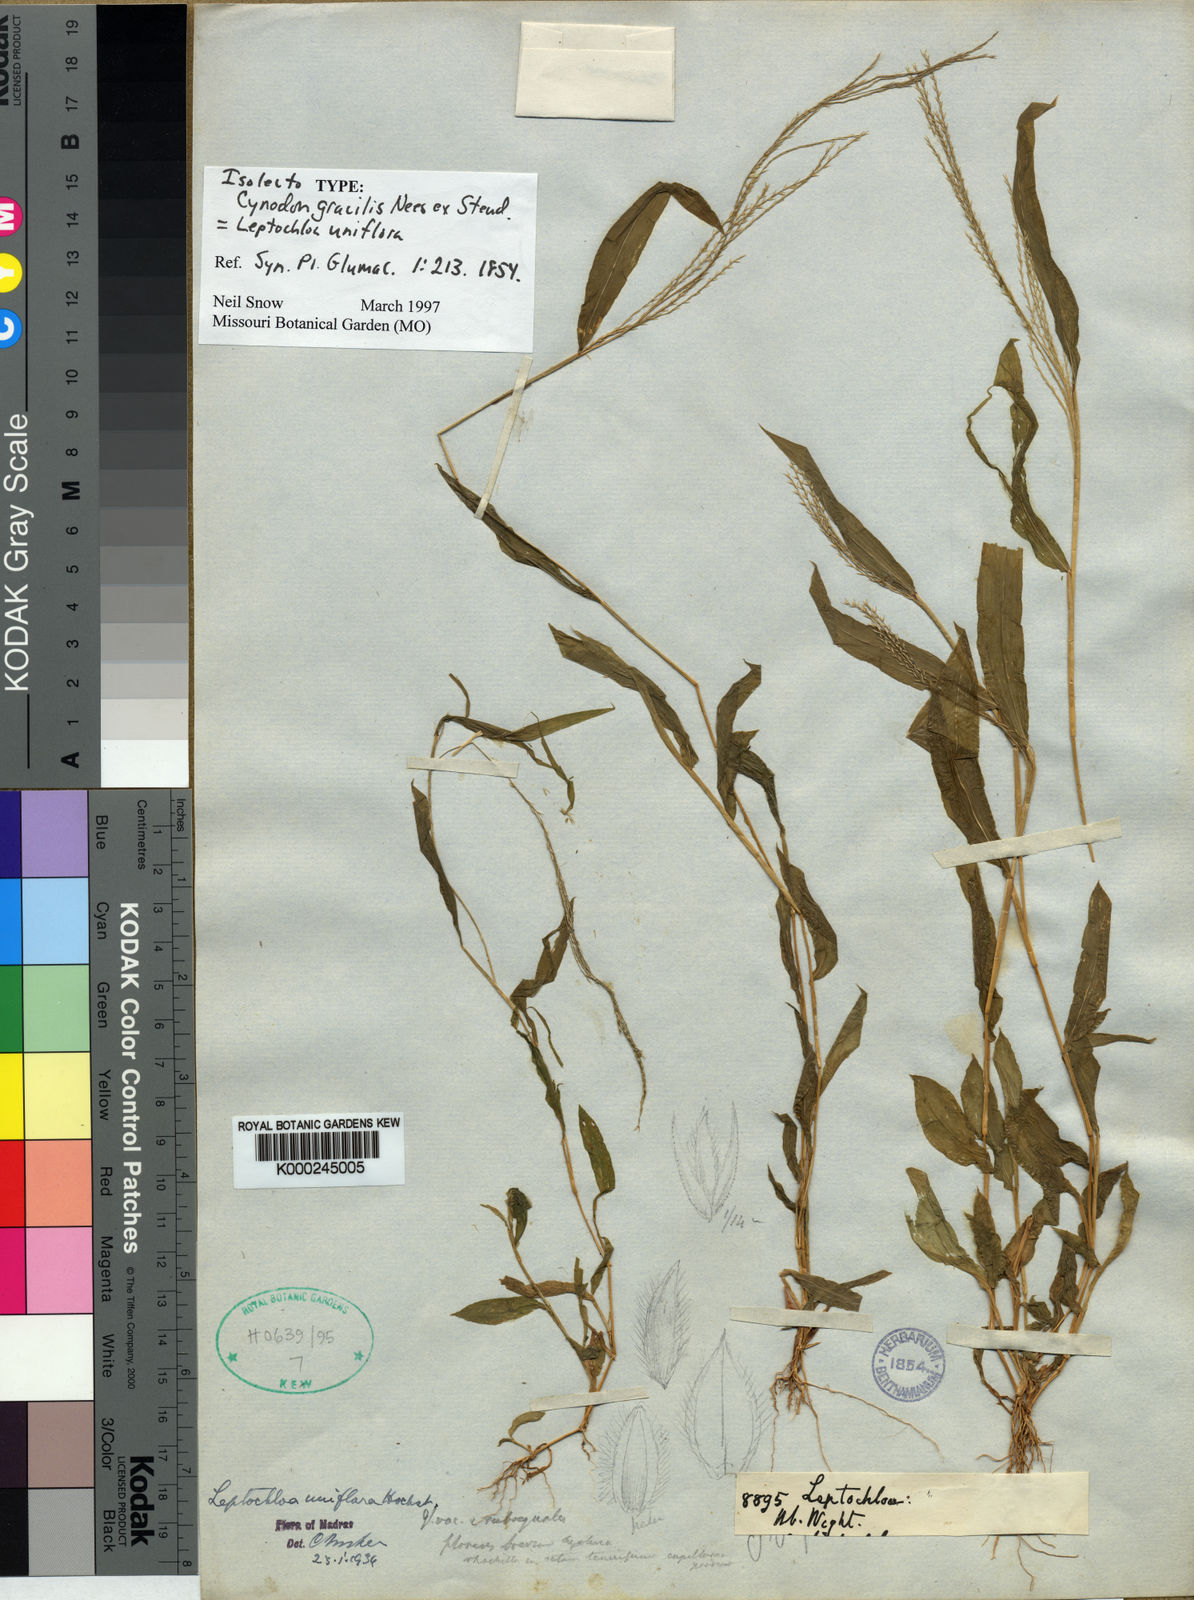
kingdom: Plantae
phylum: Tracheophyta
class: Liliopsida
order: Poales
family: Poaceae
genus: Trigonochloa
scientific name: Trigonochloa uniflora
